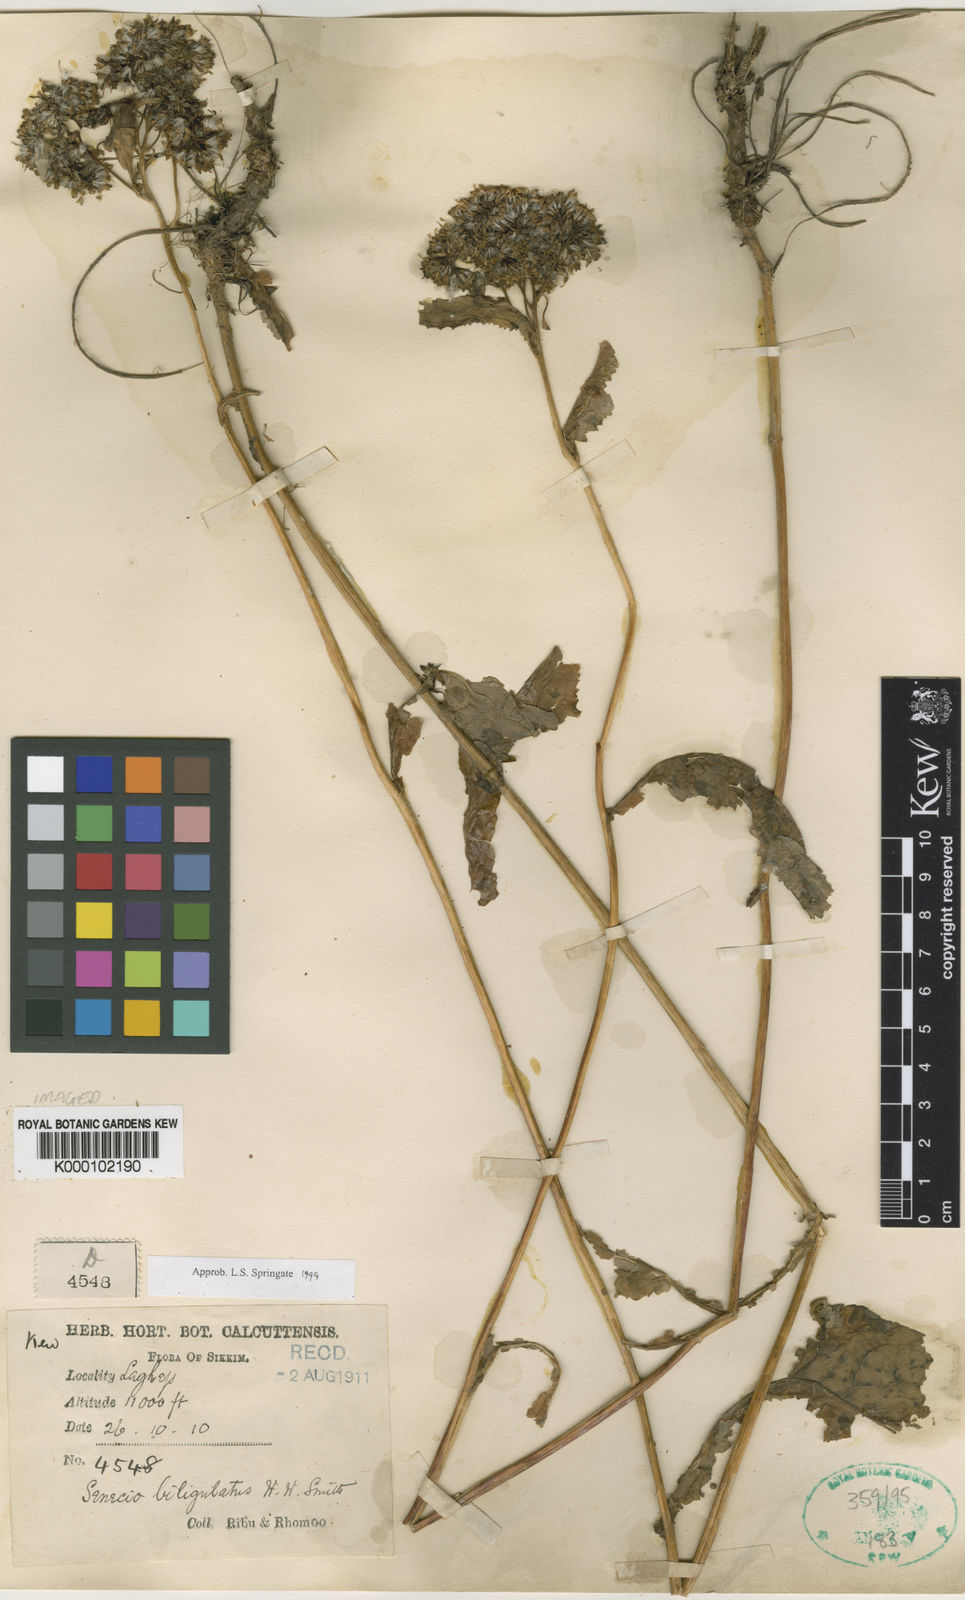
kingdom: Plantae
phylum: Tracheophyta
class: Magnoliopsida
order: Asterales
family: Asteraceae
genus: Senecio
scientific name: Senecio biligulatus
